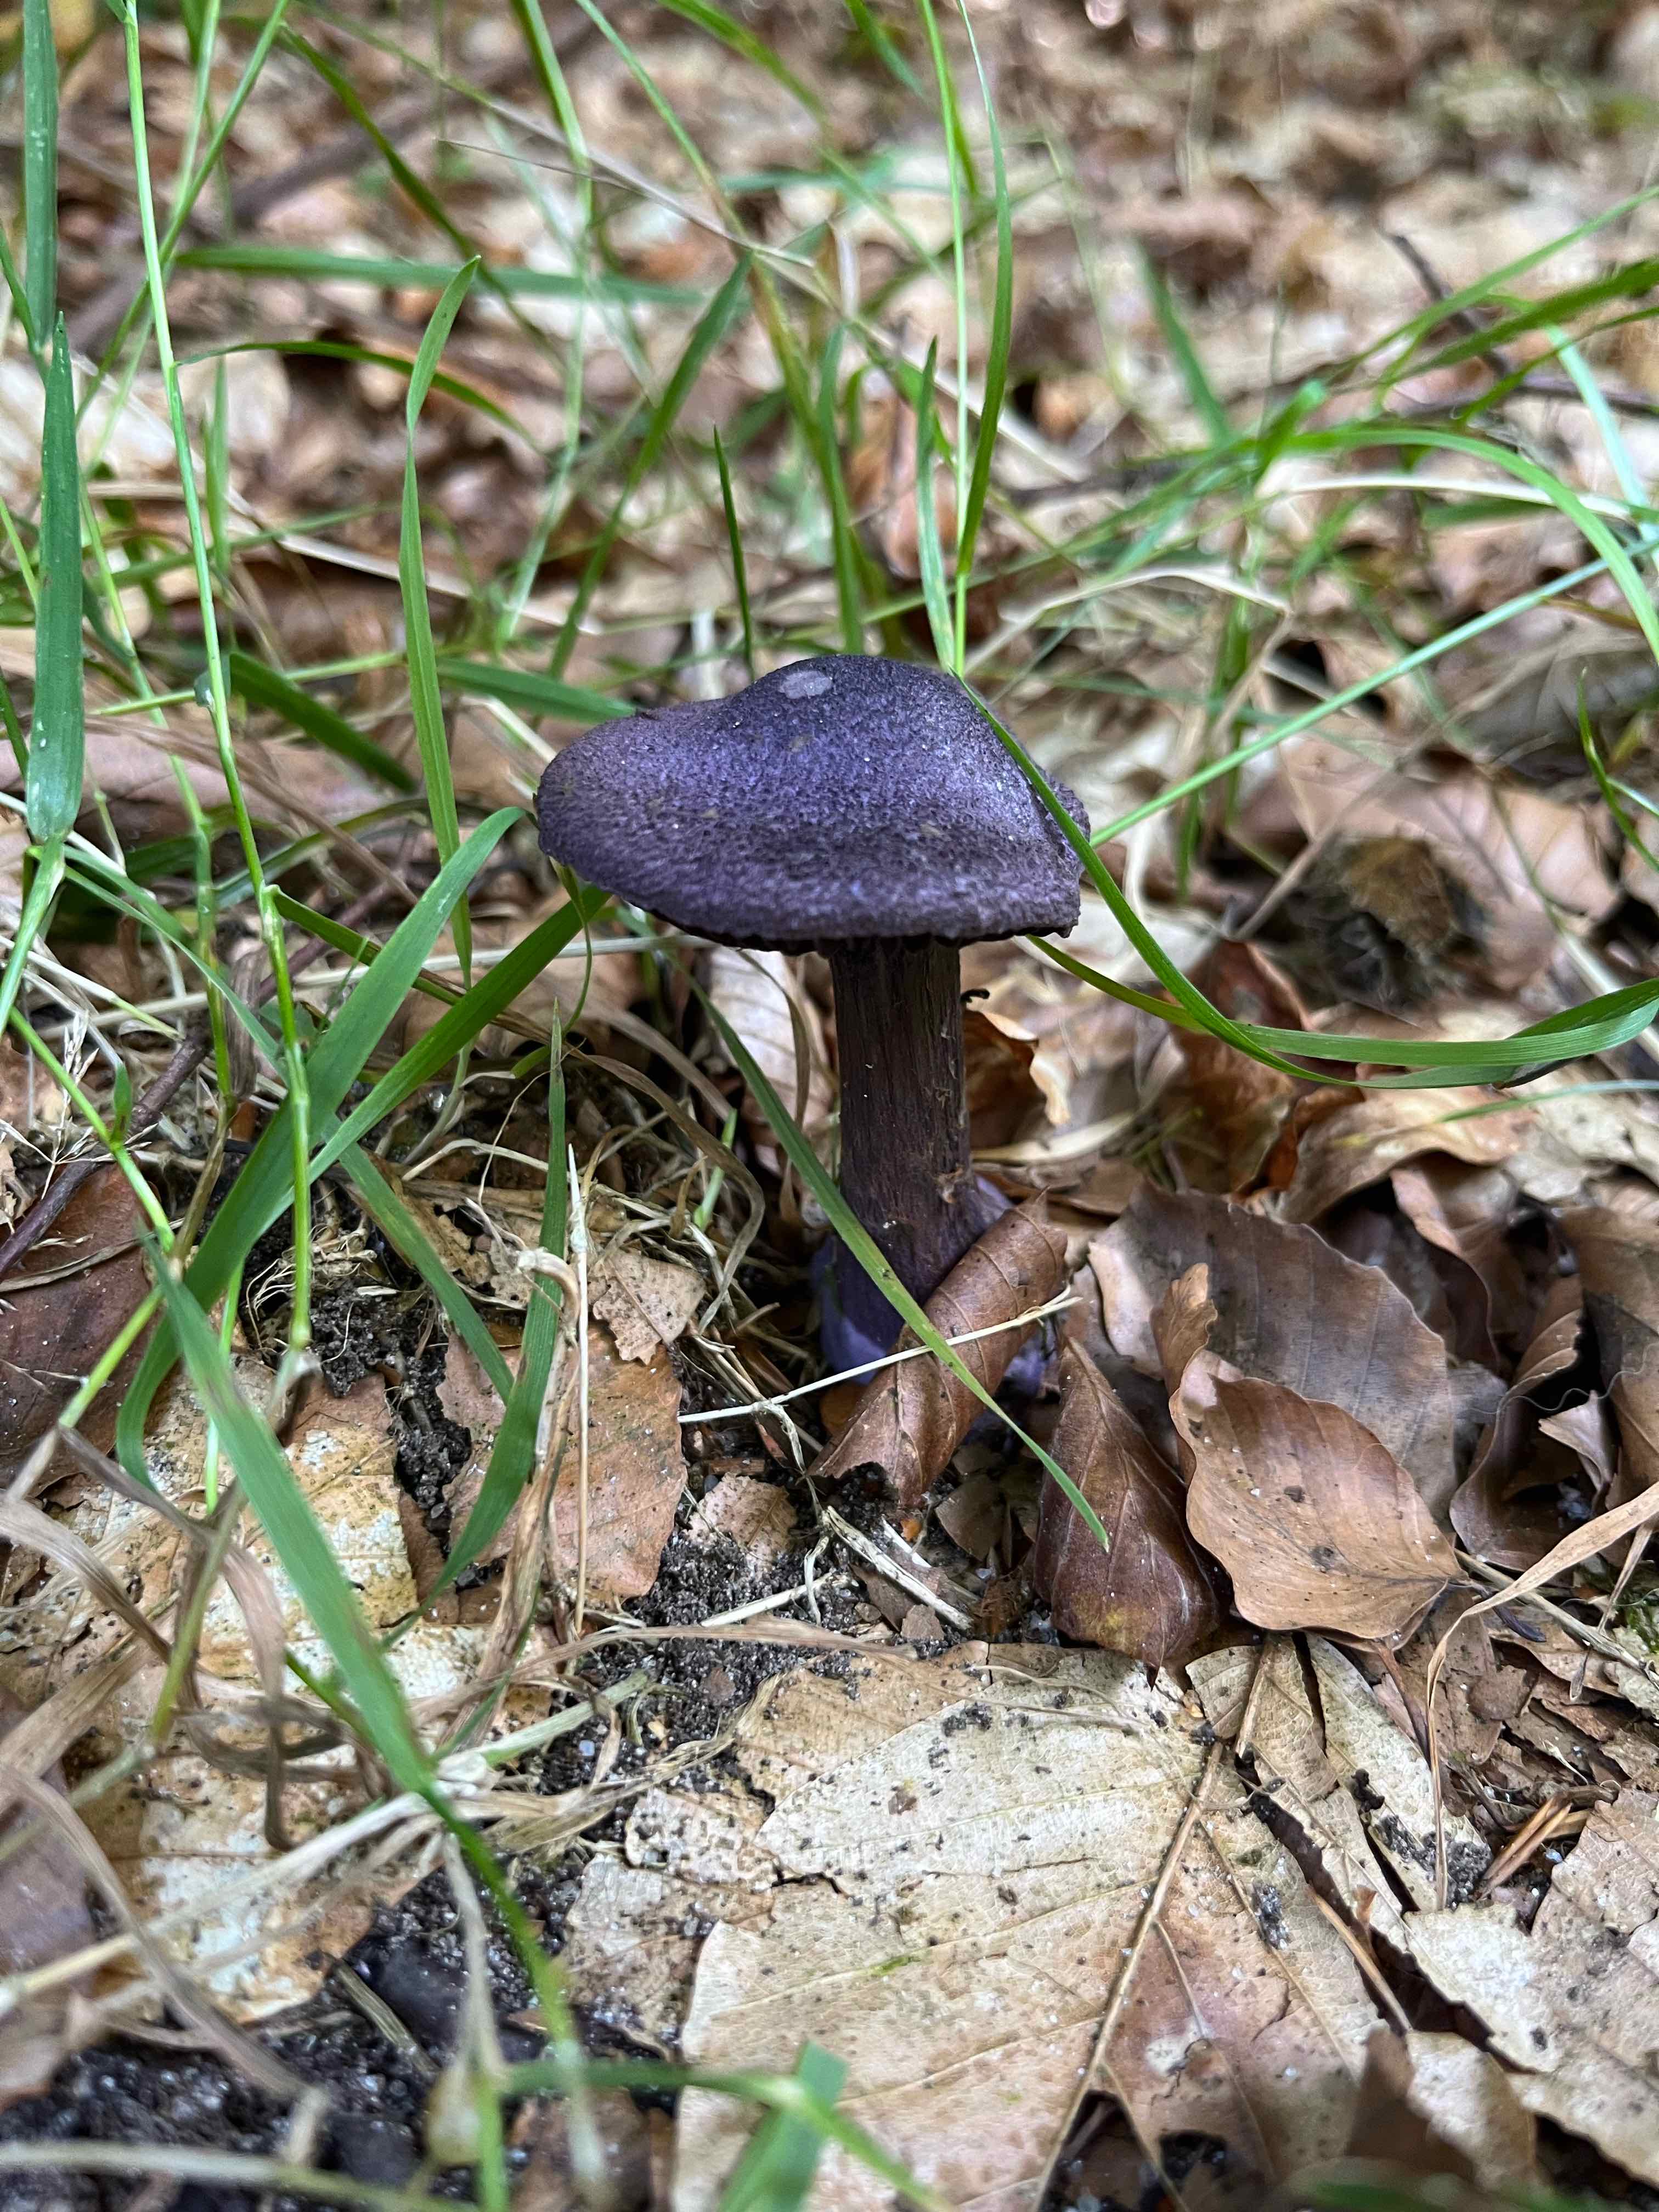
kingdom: Fungi
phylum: Basidiomycota
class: Agaricomycetes
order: Agaricales
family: Cortinariaceae
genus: Cortinarius
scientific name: Cortinarius violaceus
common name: mørkviolet slørhat
